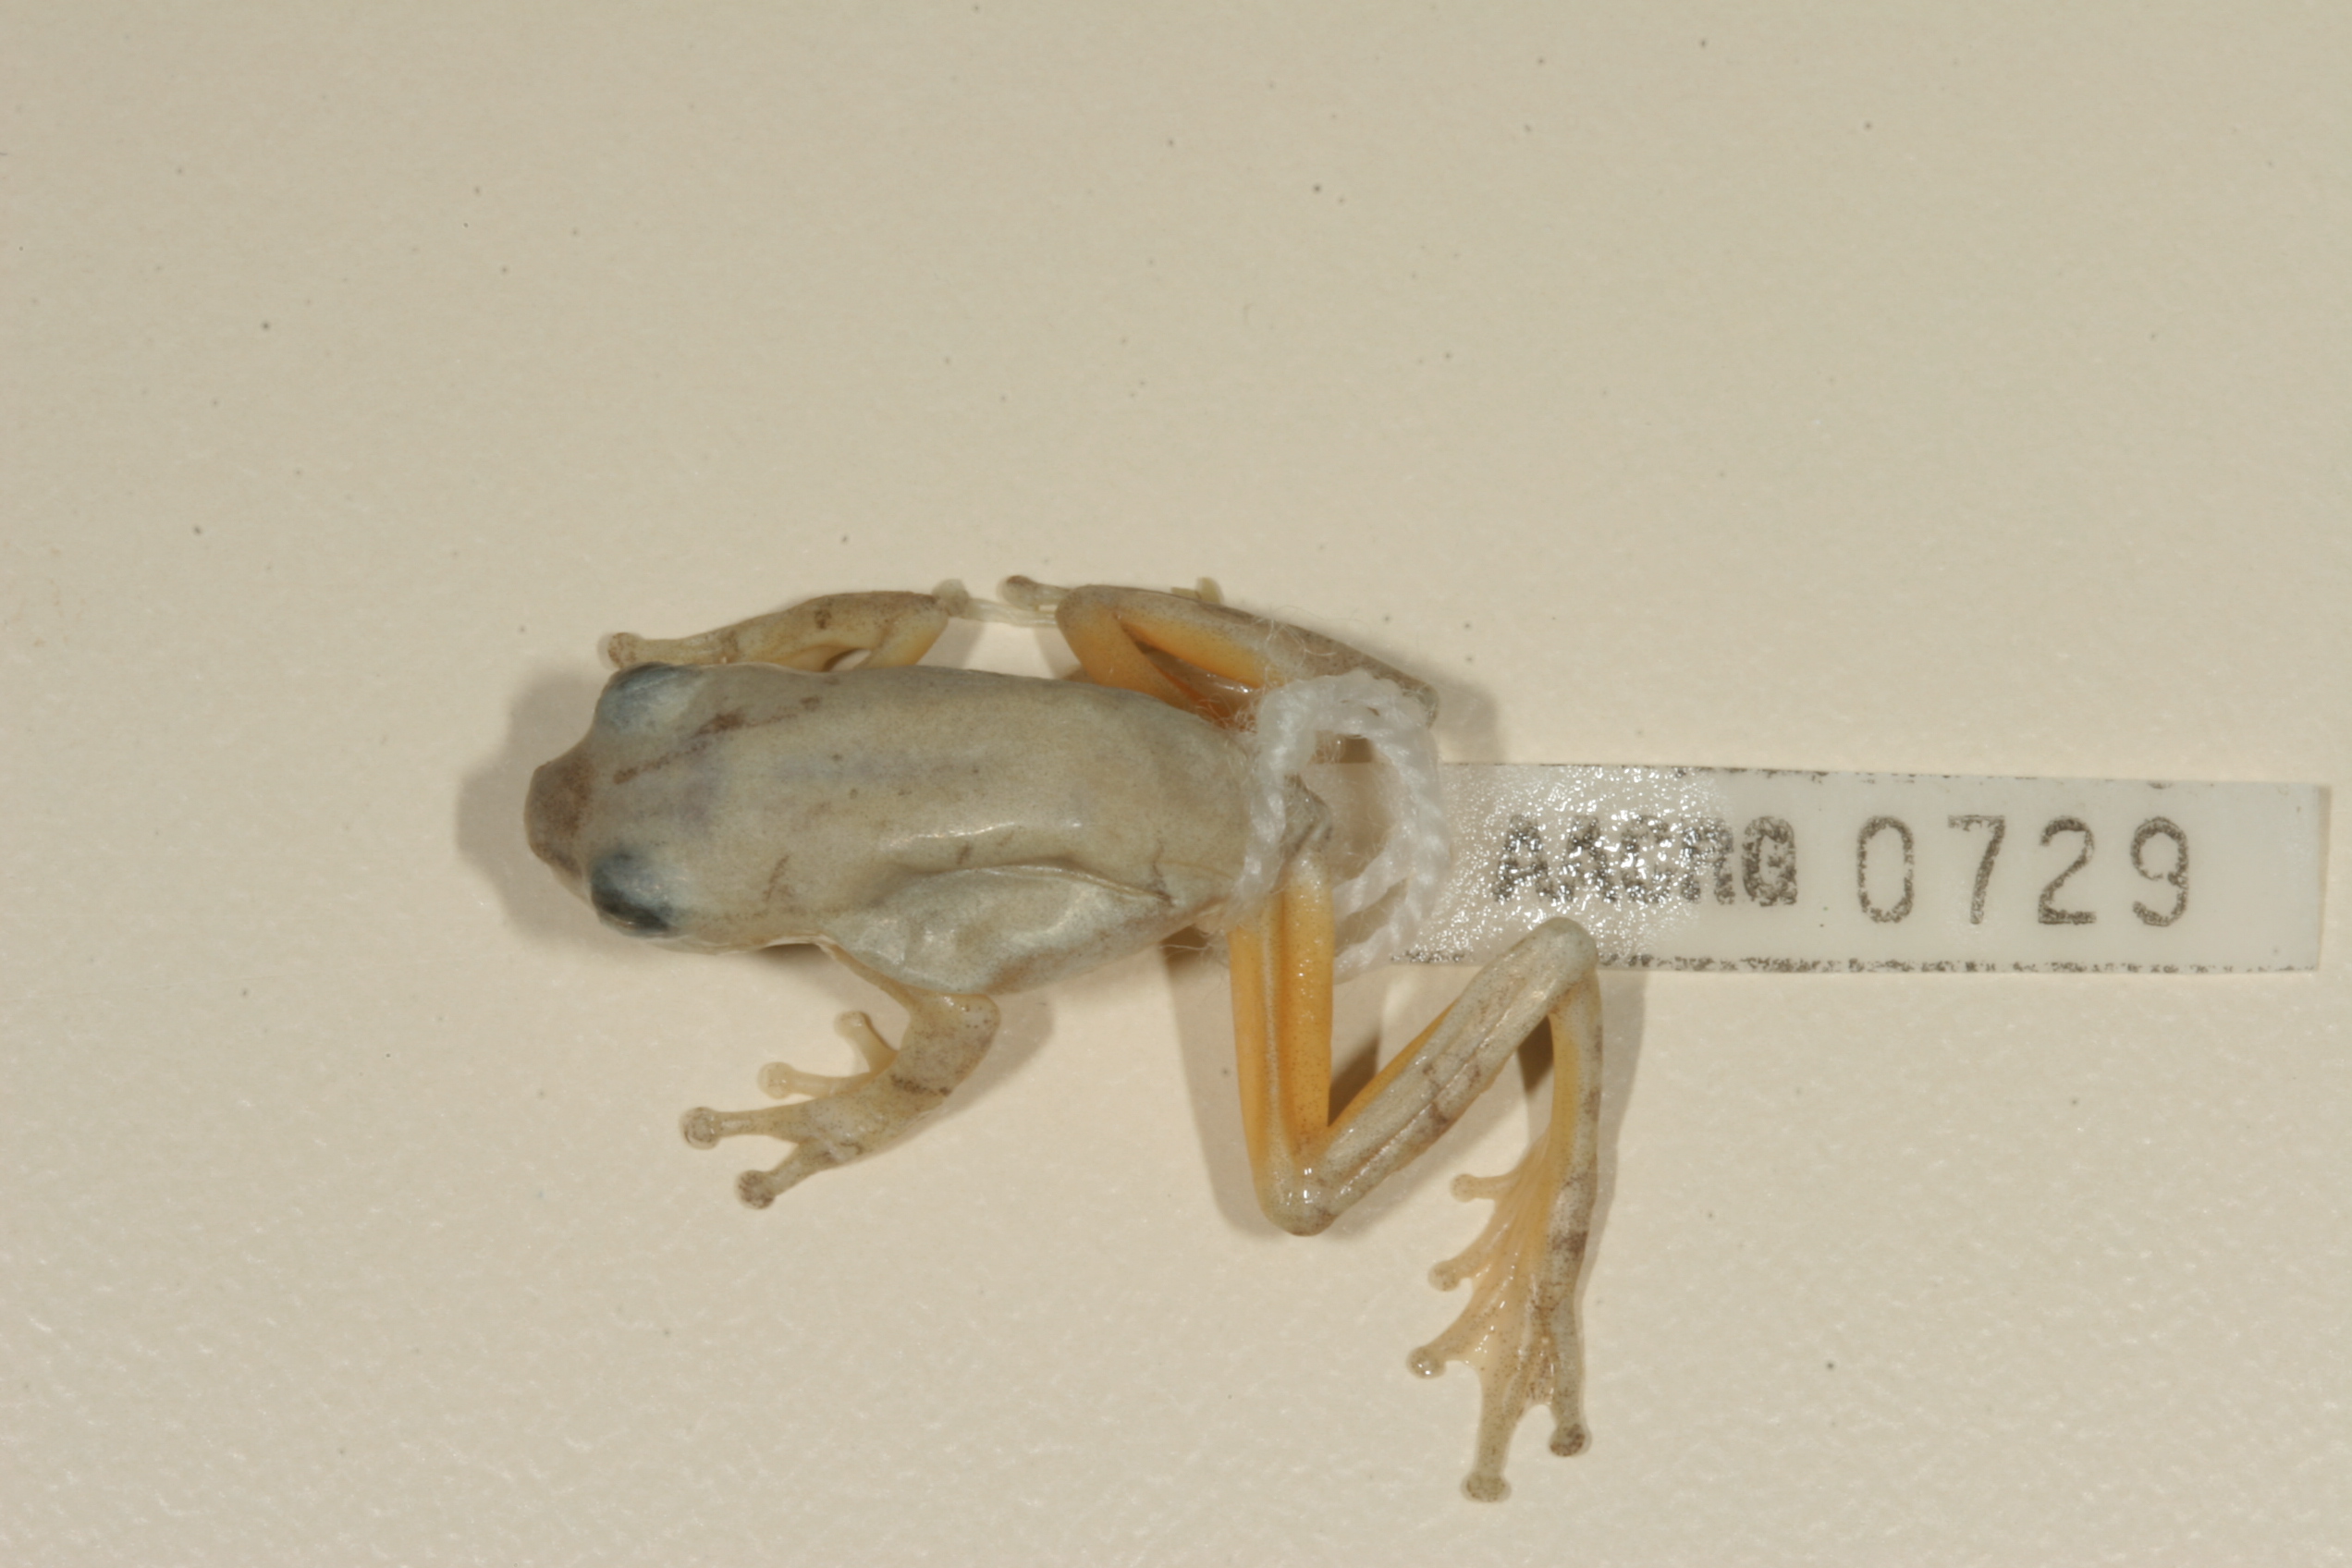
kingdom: Animalia
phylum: Chordata
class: Amphibia
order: Anura
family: Hyperoliidae
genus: Hyperolius
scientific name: Hyperolius marmoratus
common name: Painted reed frog
